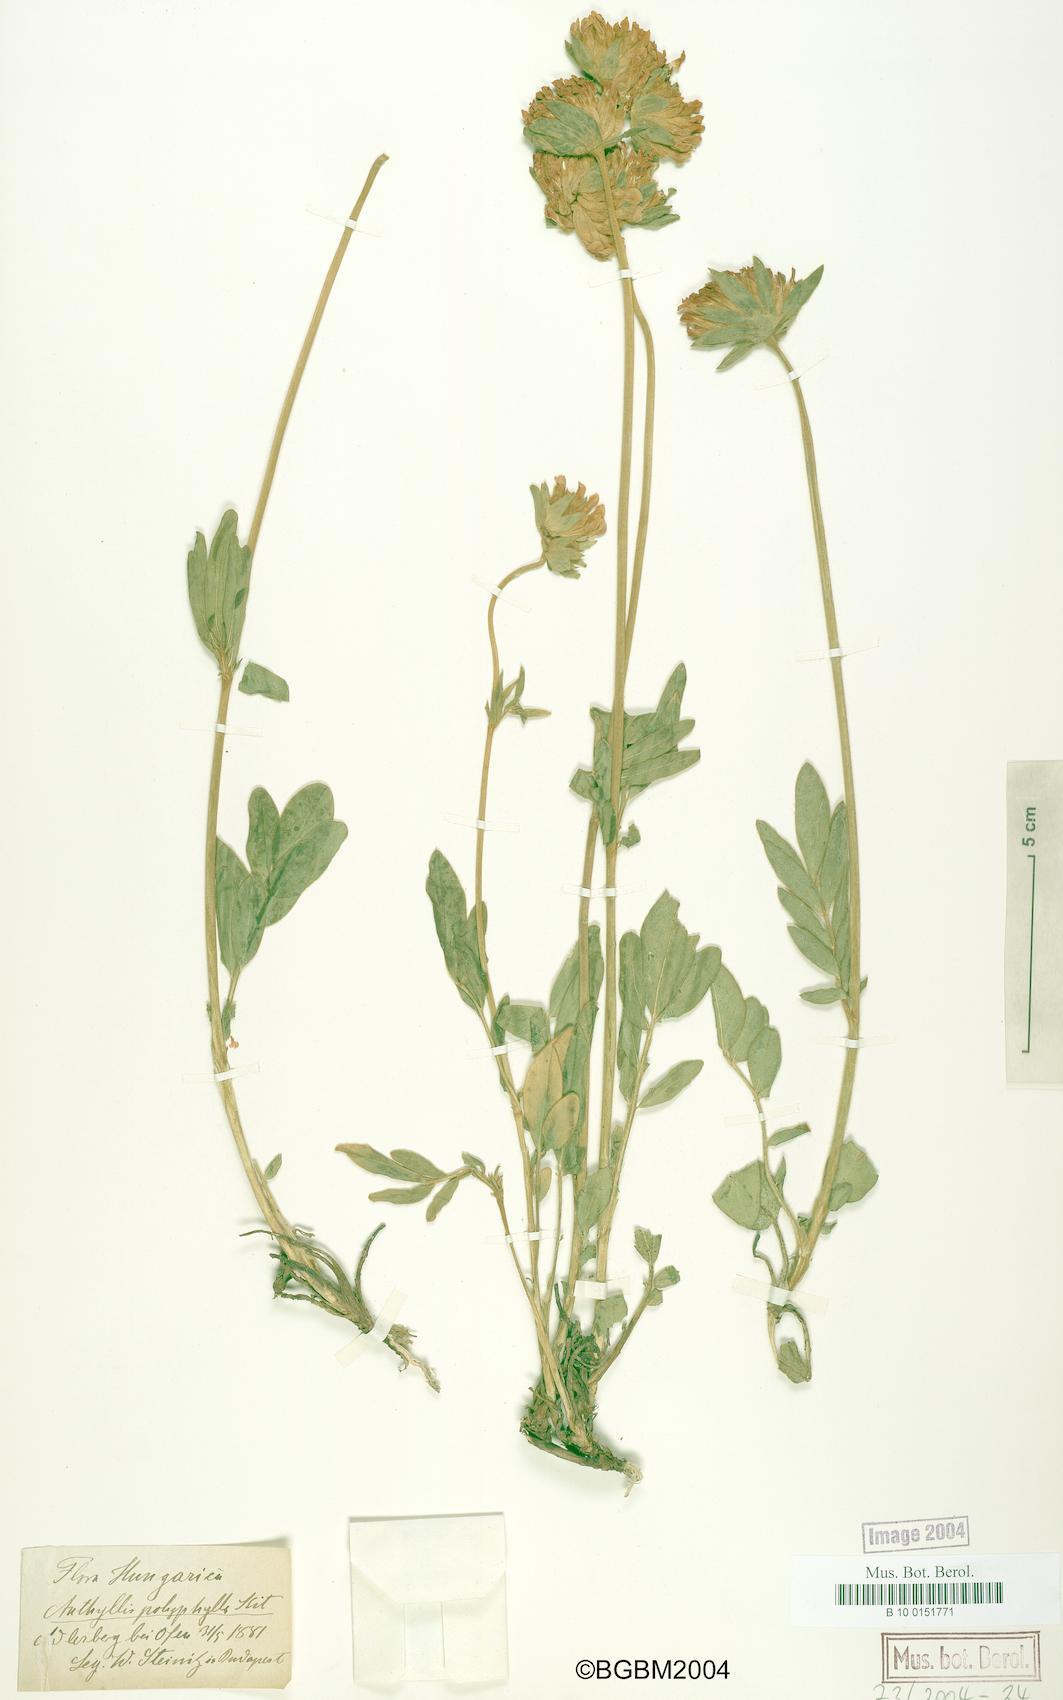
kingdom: Plantae
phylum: Tracheophyta
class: Magnoliopsida
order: Fabales
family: Fabaceae
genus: Anthyllis
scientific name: Anthyllis vulneraria
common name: Kidney vetch
